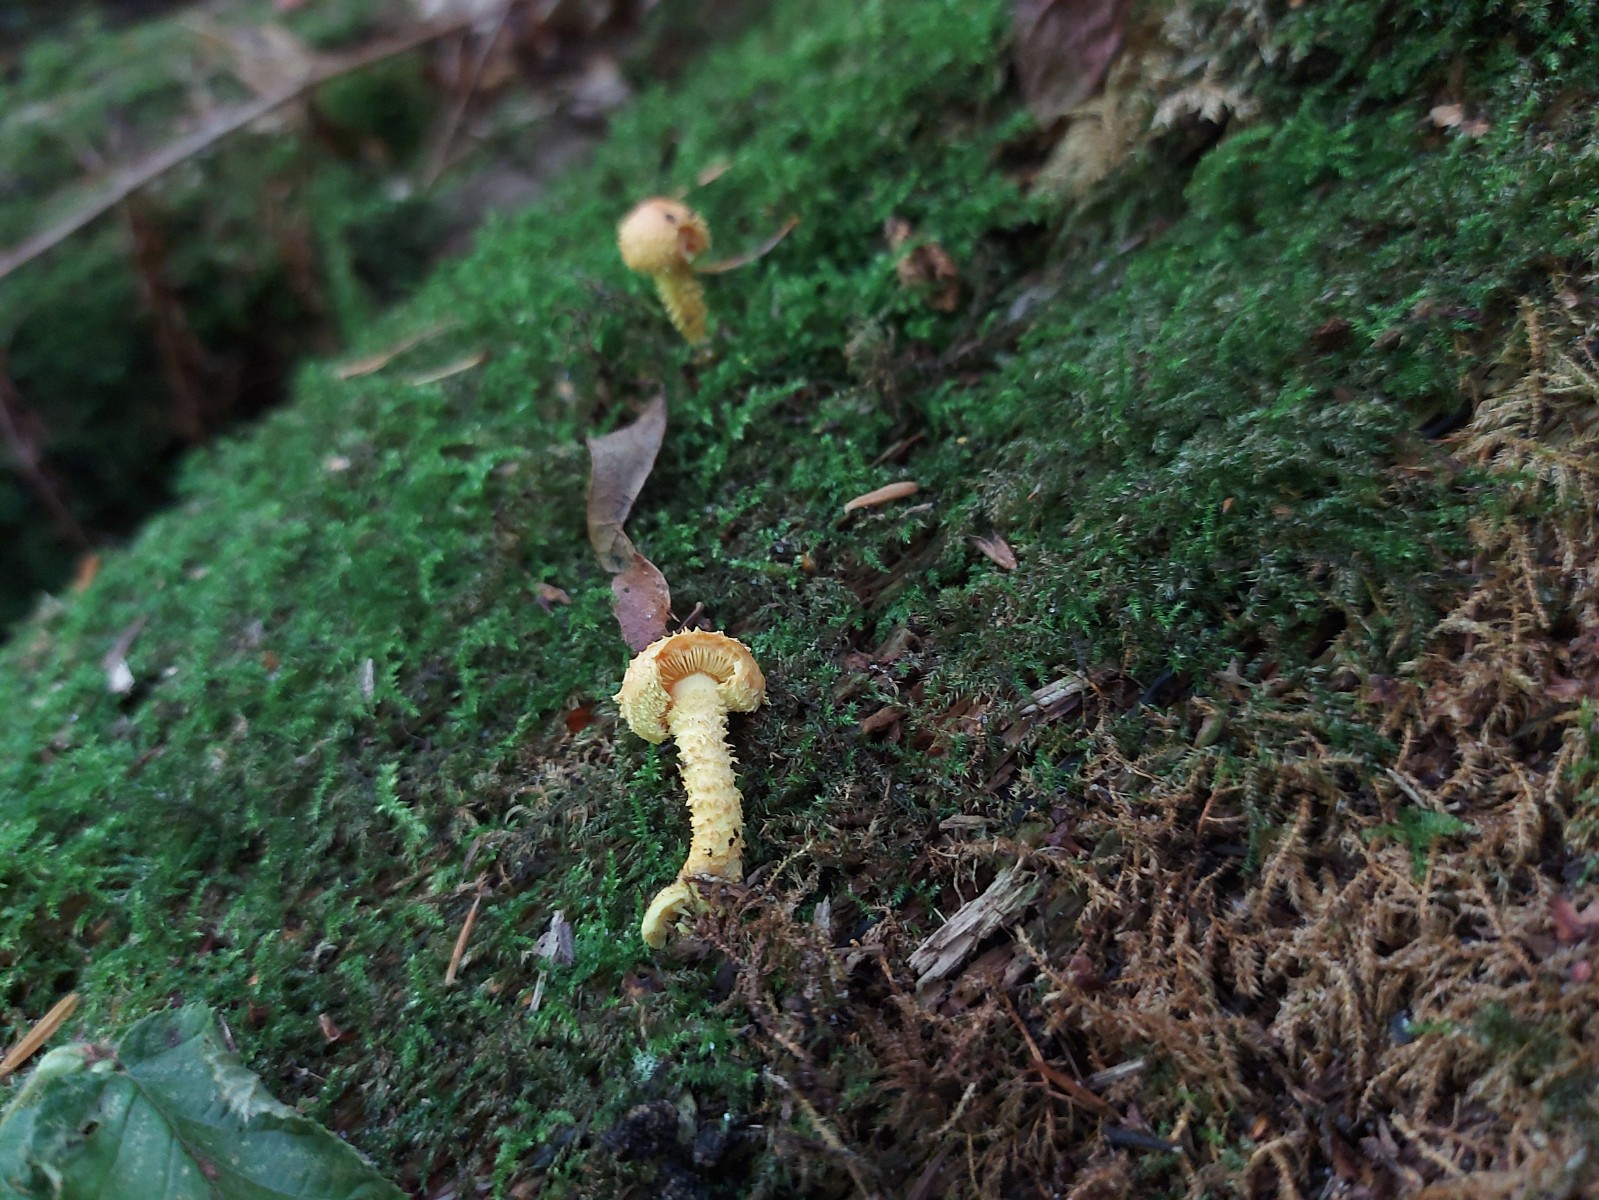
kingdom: Fungi
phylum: Basidiomycota
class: Agaricomycetes
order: Agaricales
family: Strophariaceae
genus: Pholiota
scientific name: Pholiota flammans
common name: flamme-skælhat
